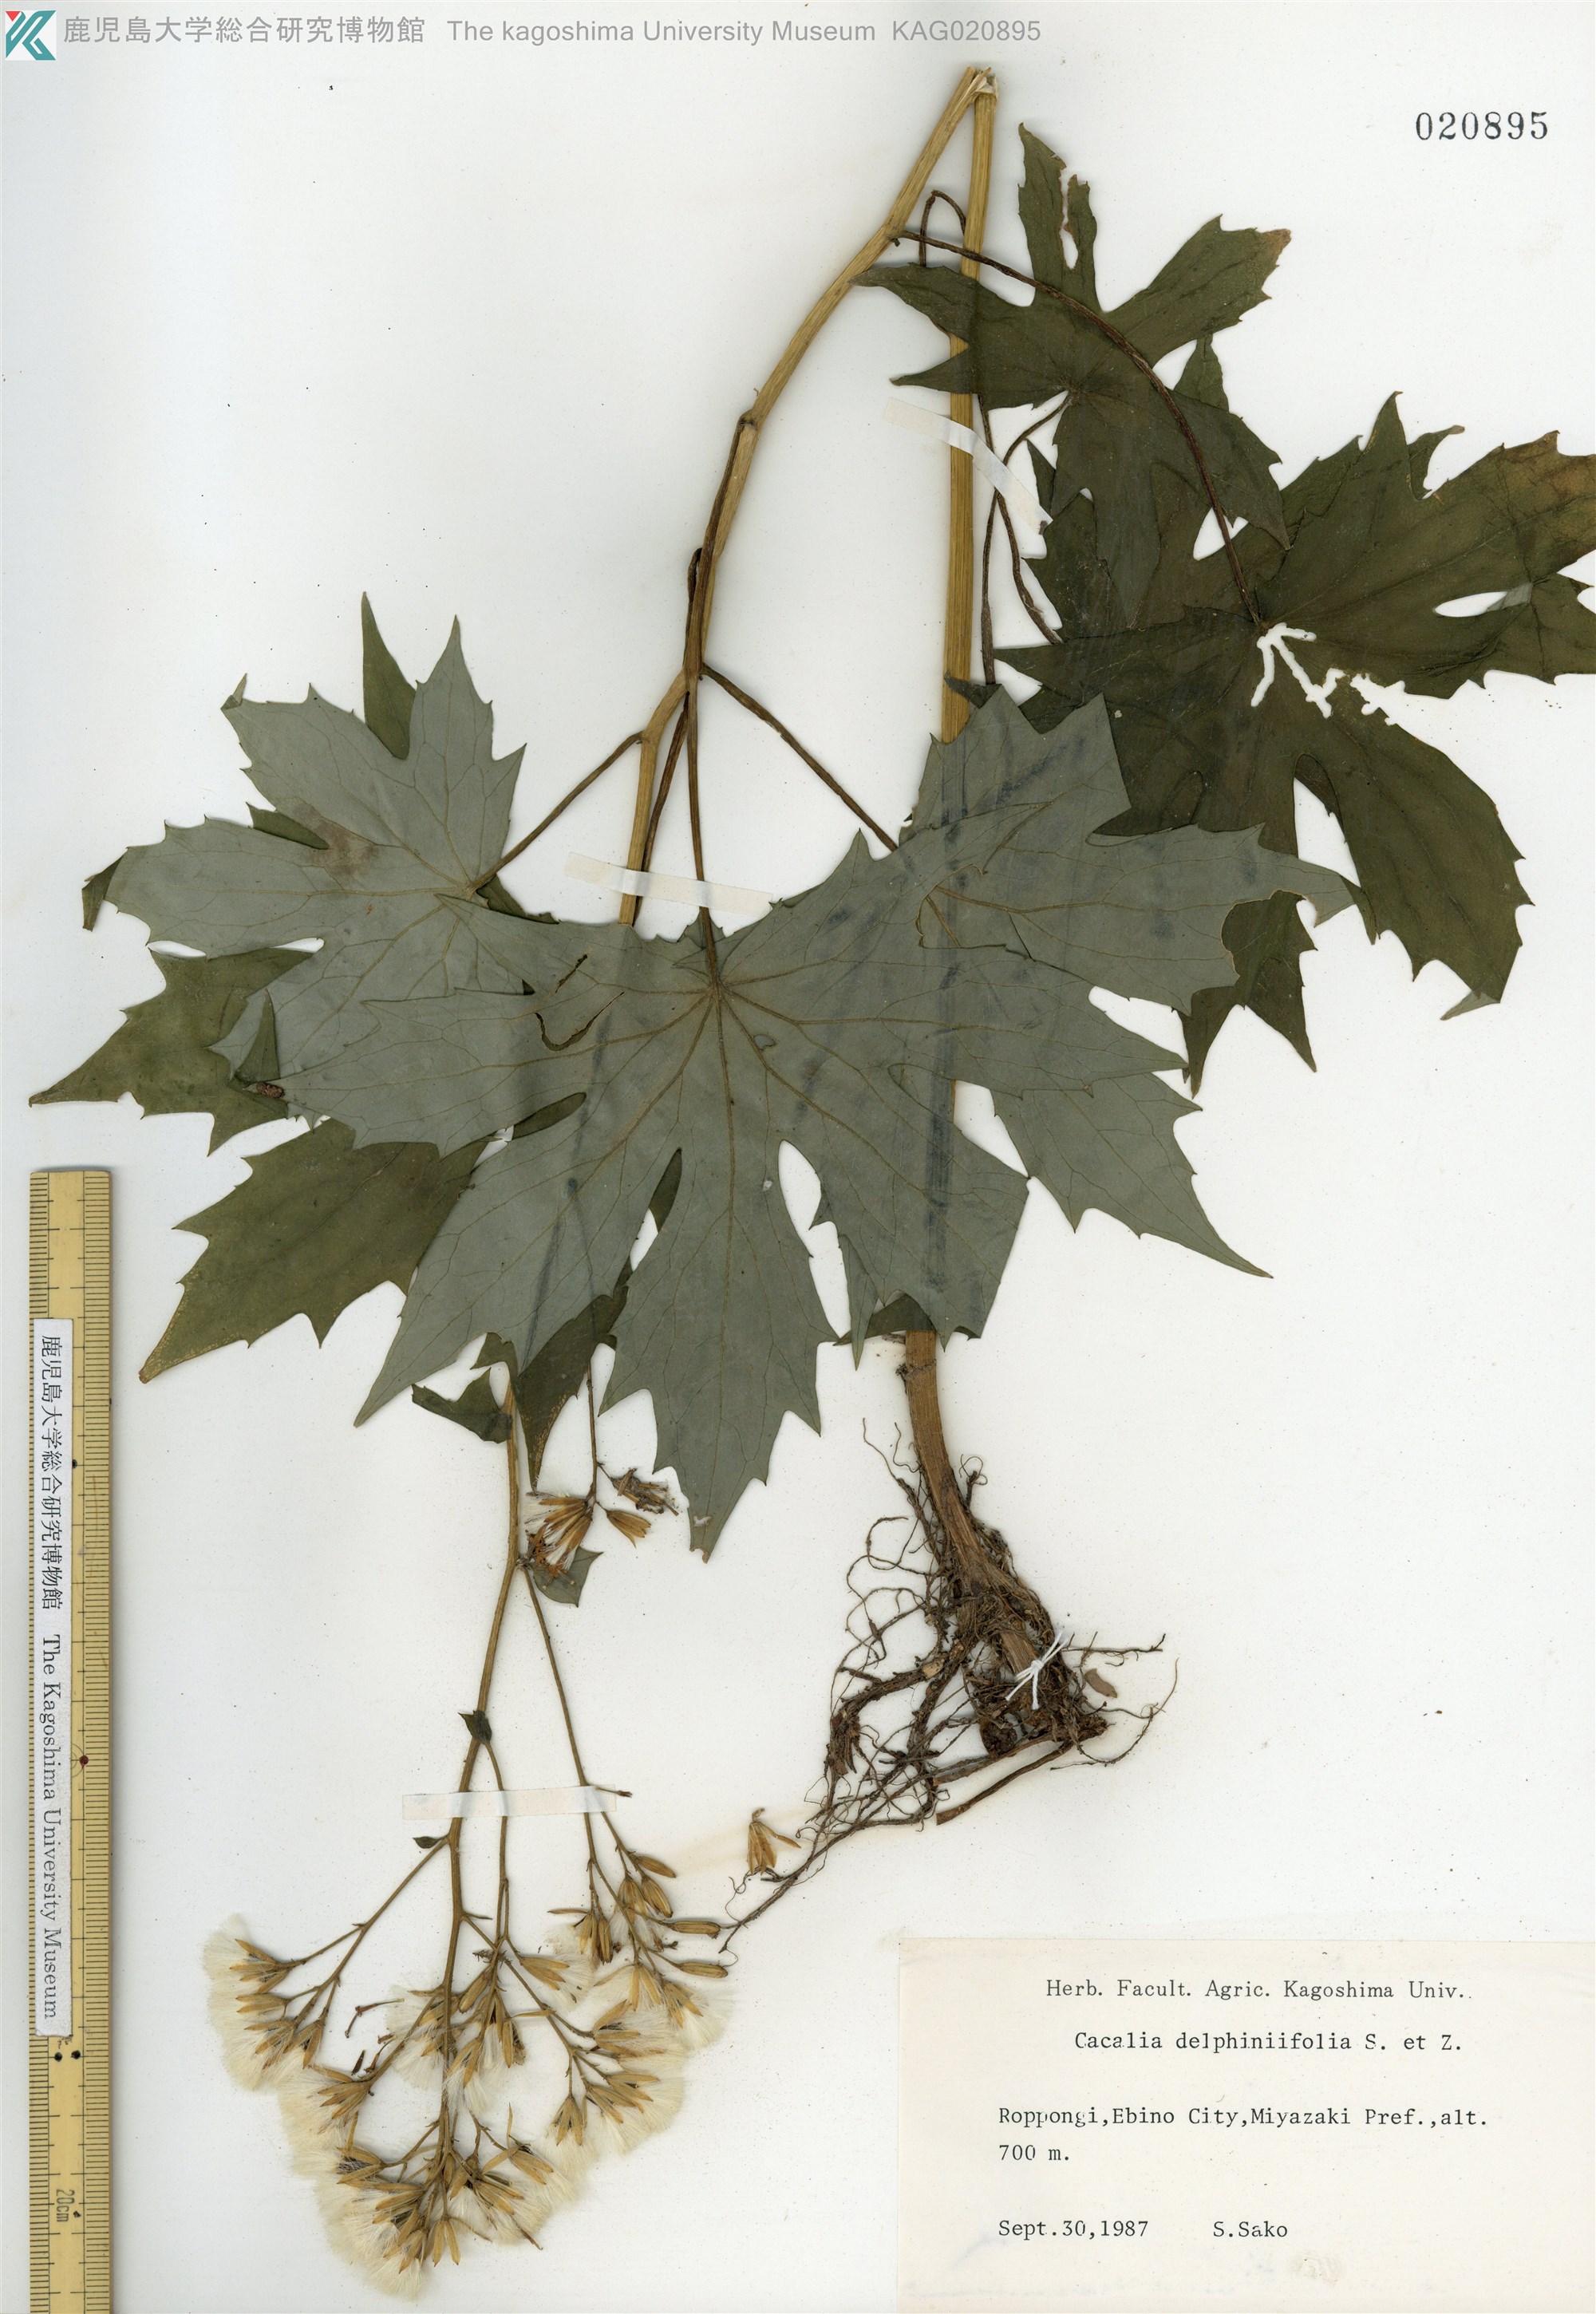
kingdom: Plantae
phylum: Tracheophyta
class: Magnoliopsida
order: Asterales
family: Asteraceae
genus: Japonicalia
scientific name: Japonicalia delphiniifolia
